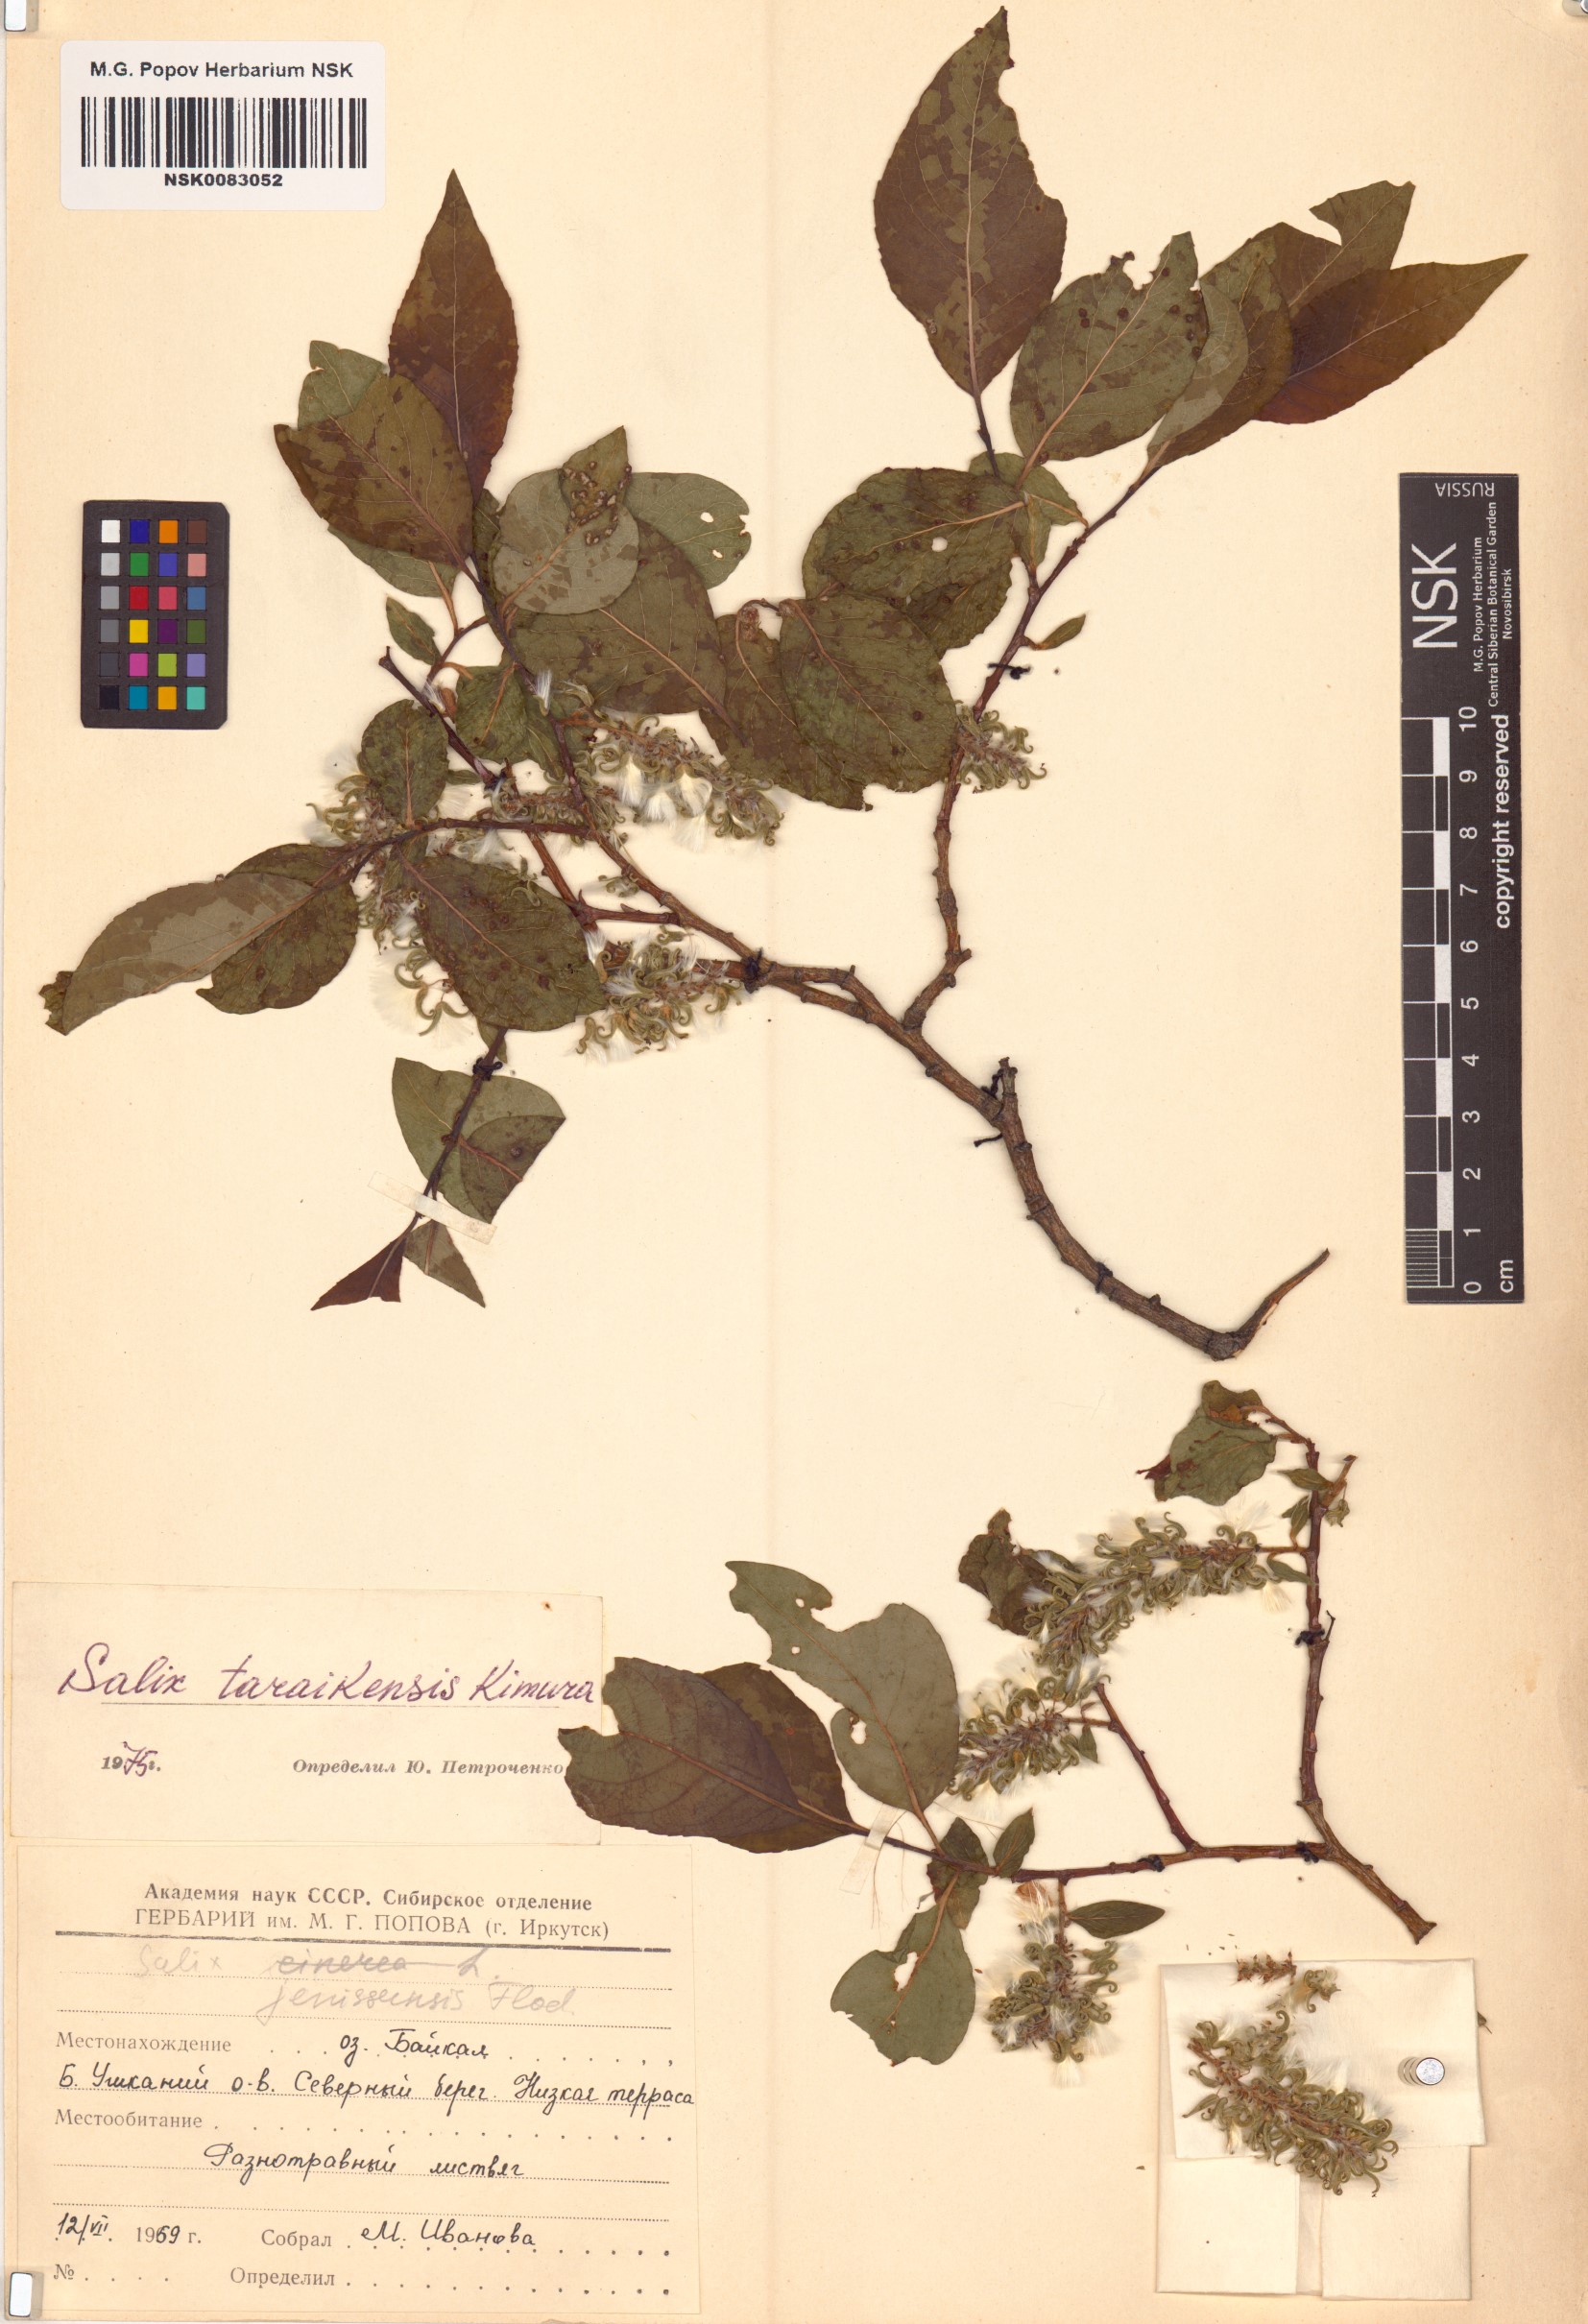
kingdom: Plantae
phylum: Tracheophyta
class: Magnoliopsida
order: Malpighiales
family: Salicaceae
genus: Salix
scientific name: Salix taraikensis
